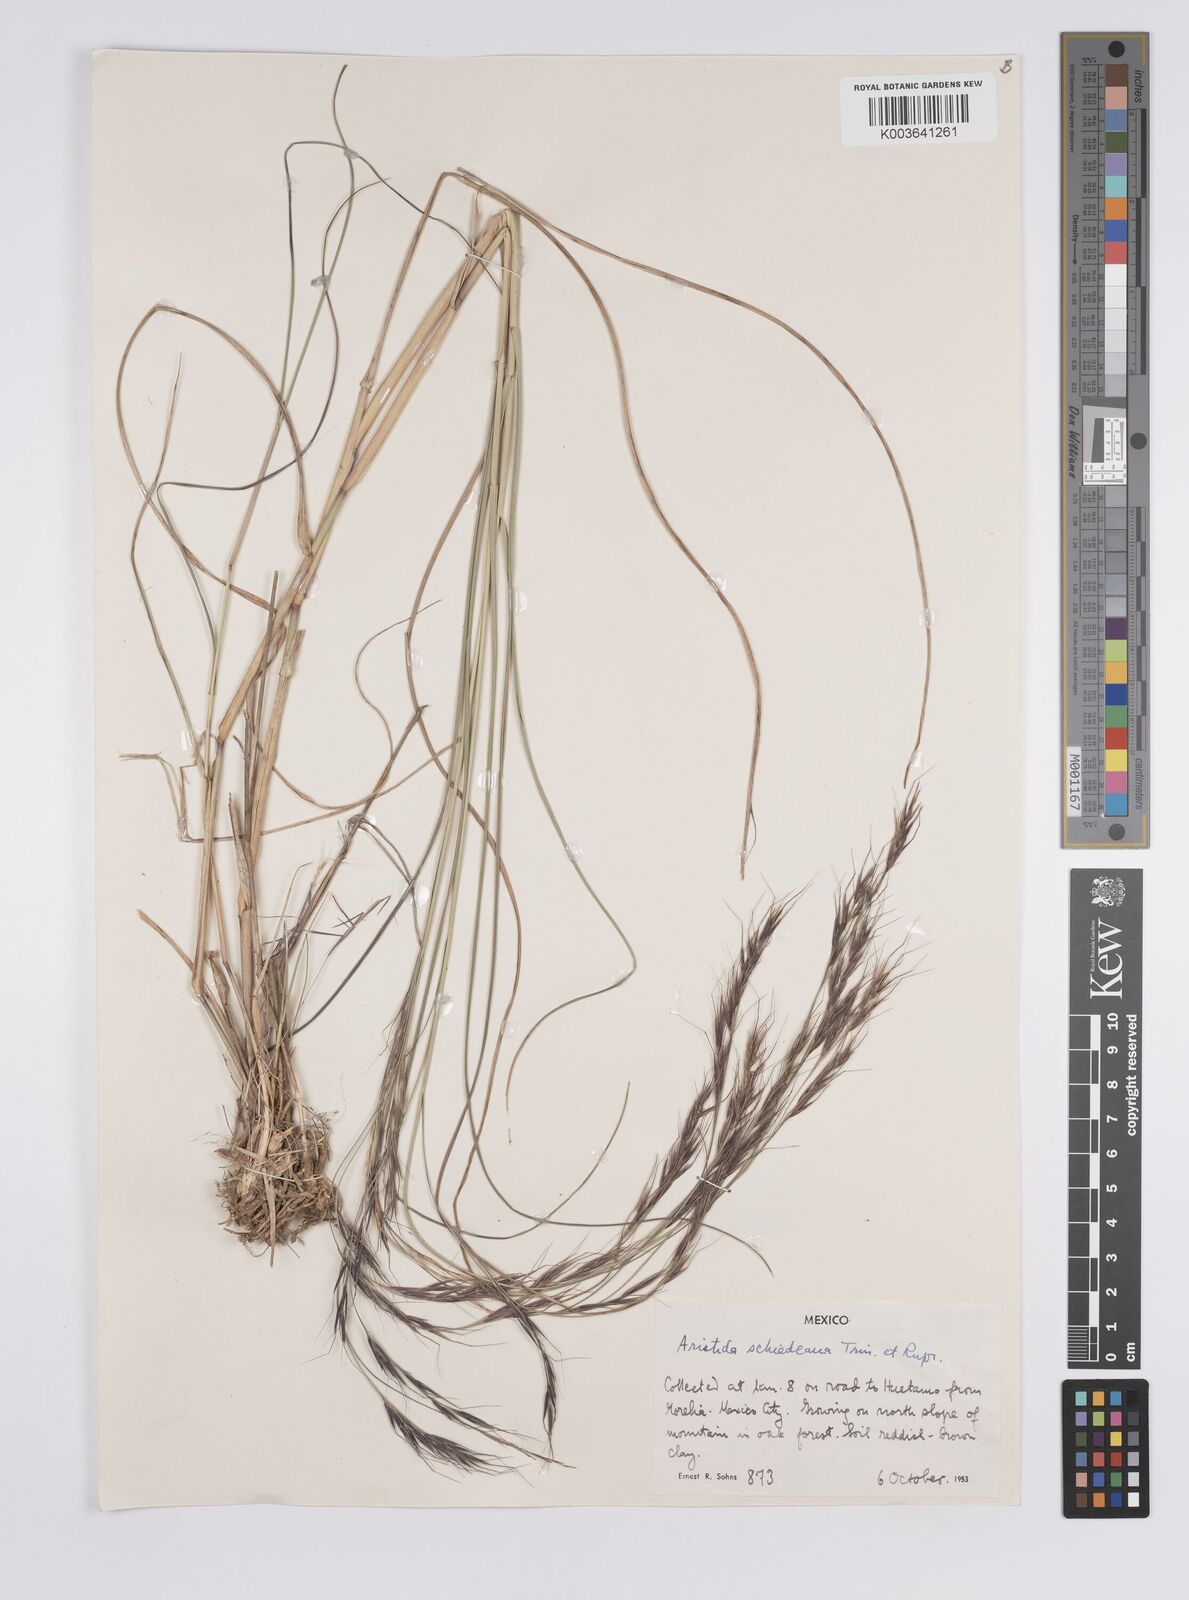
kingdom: Plantae
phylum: Tracheophyta
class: Liliopsida
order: Poales
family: Poaceae
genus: Aristida
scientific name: Aristida schiedeana
